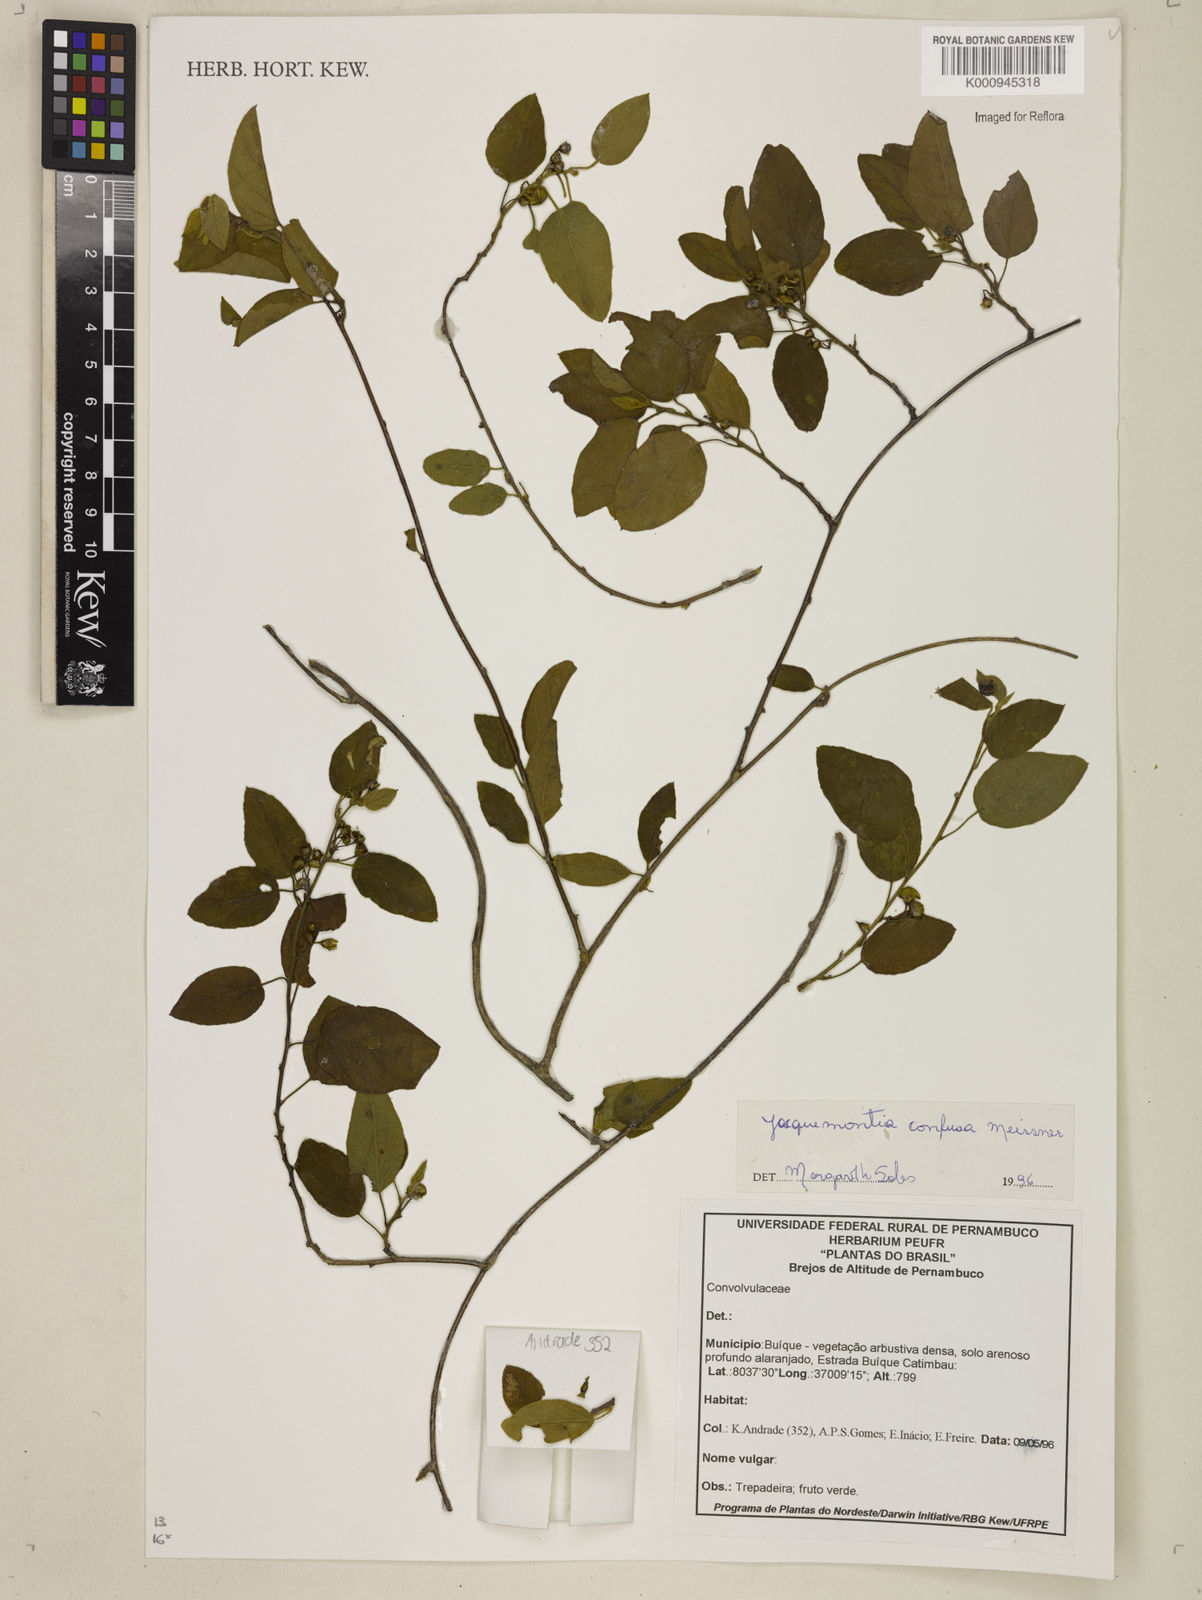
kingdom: Plantae
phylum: Tracheophyta
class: Magnoliopsida
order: Solanales
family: Convolvulaceae
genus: Jacquemontia
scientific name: Jacquemontia nodiflora
